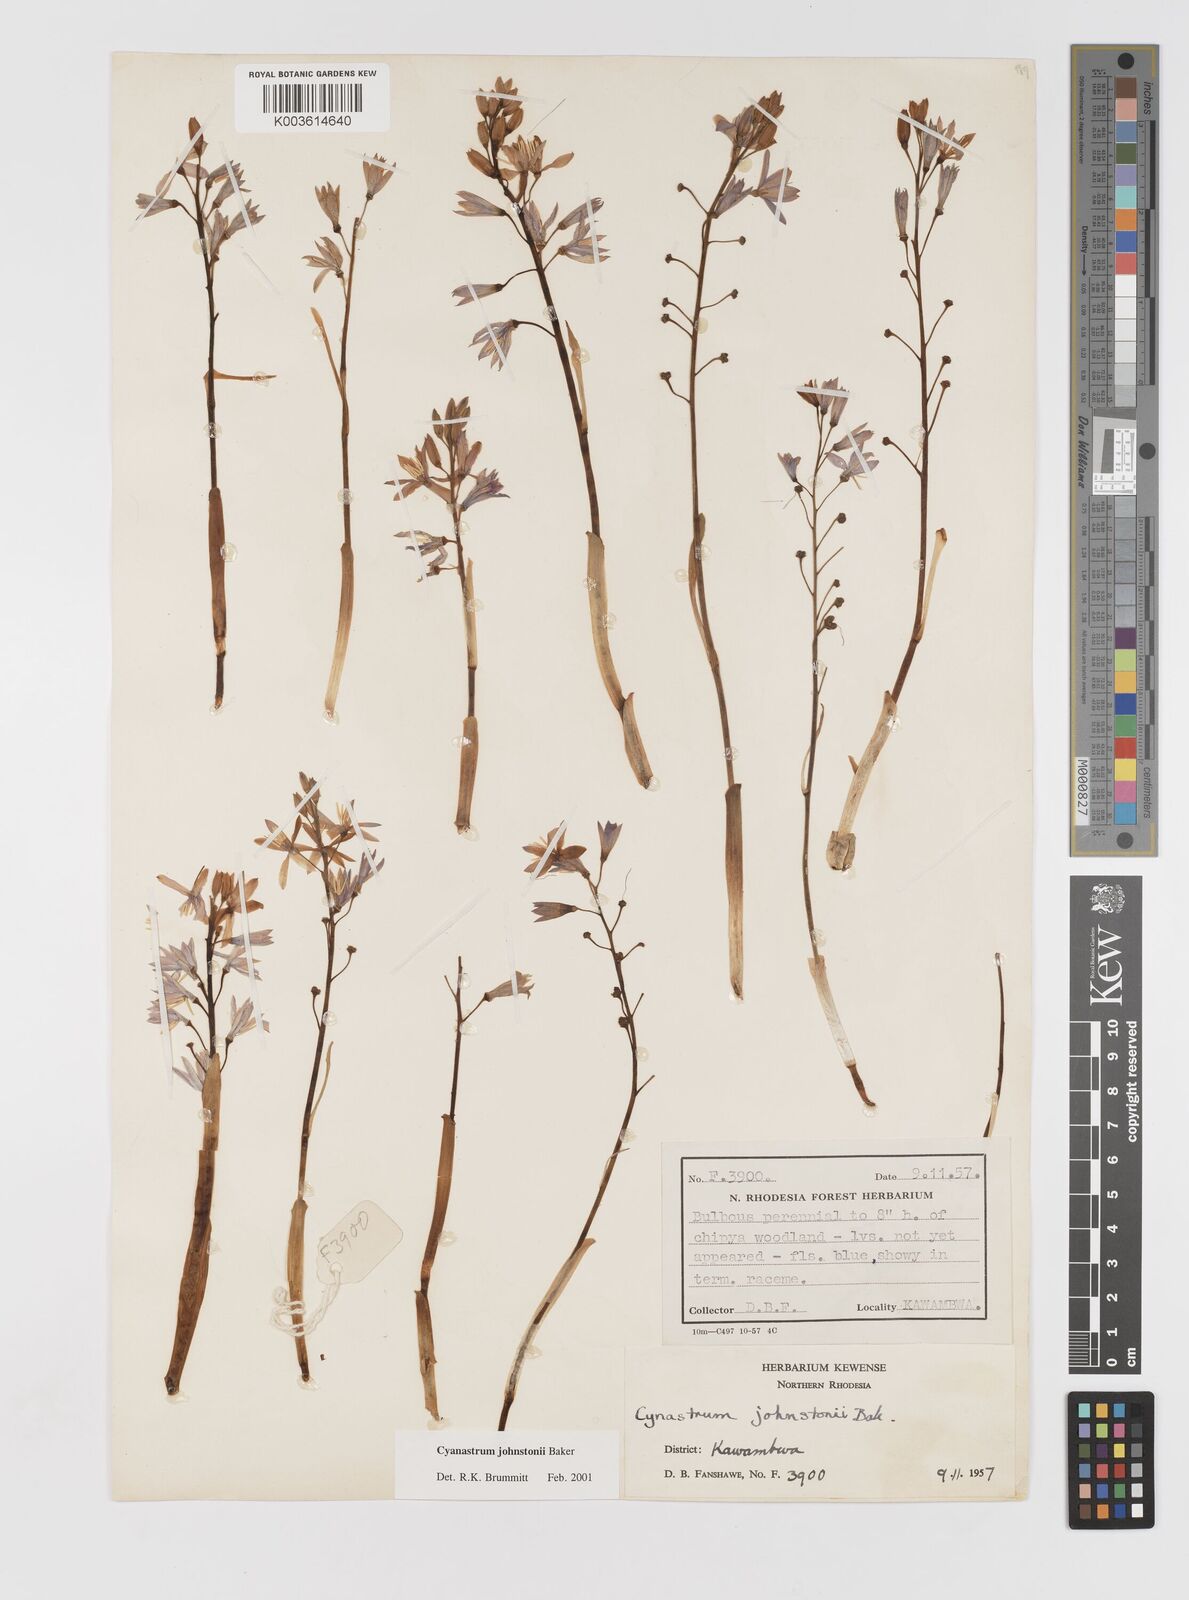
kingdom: Plantae
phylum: Tracheophyta
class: Liliopsida
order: Asparagales
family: Tecophilaeaceae
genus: Cyanastrum
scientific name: Cyanastrum johnstonii
